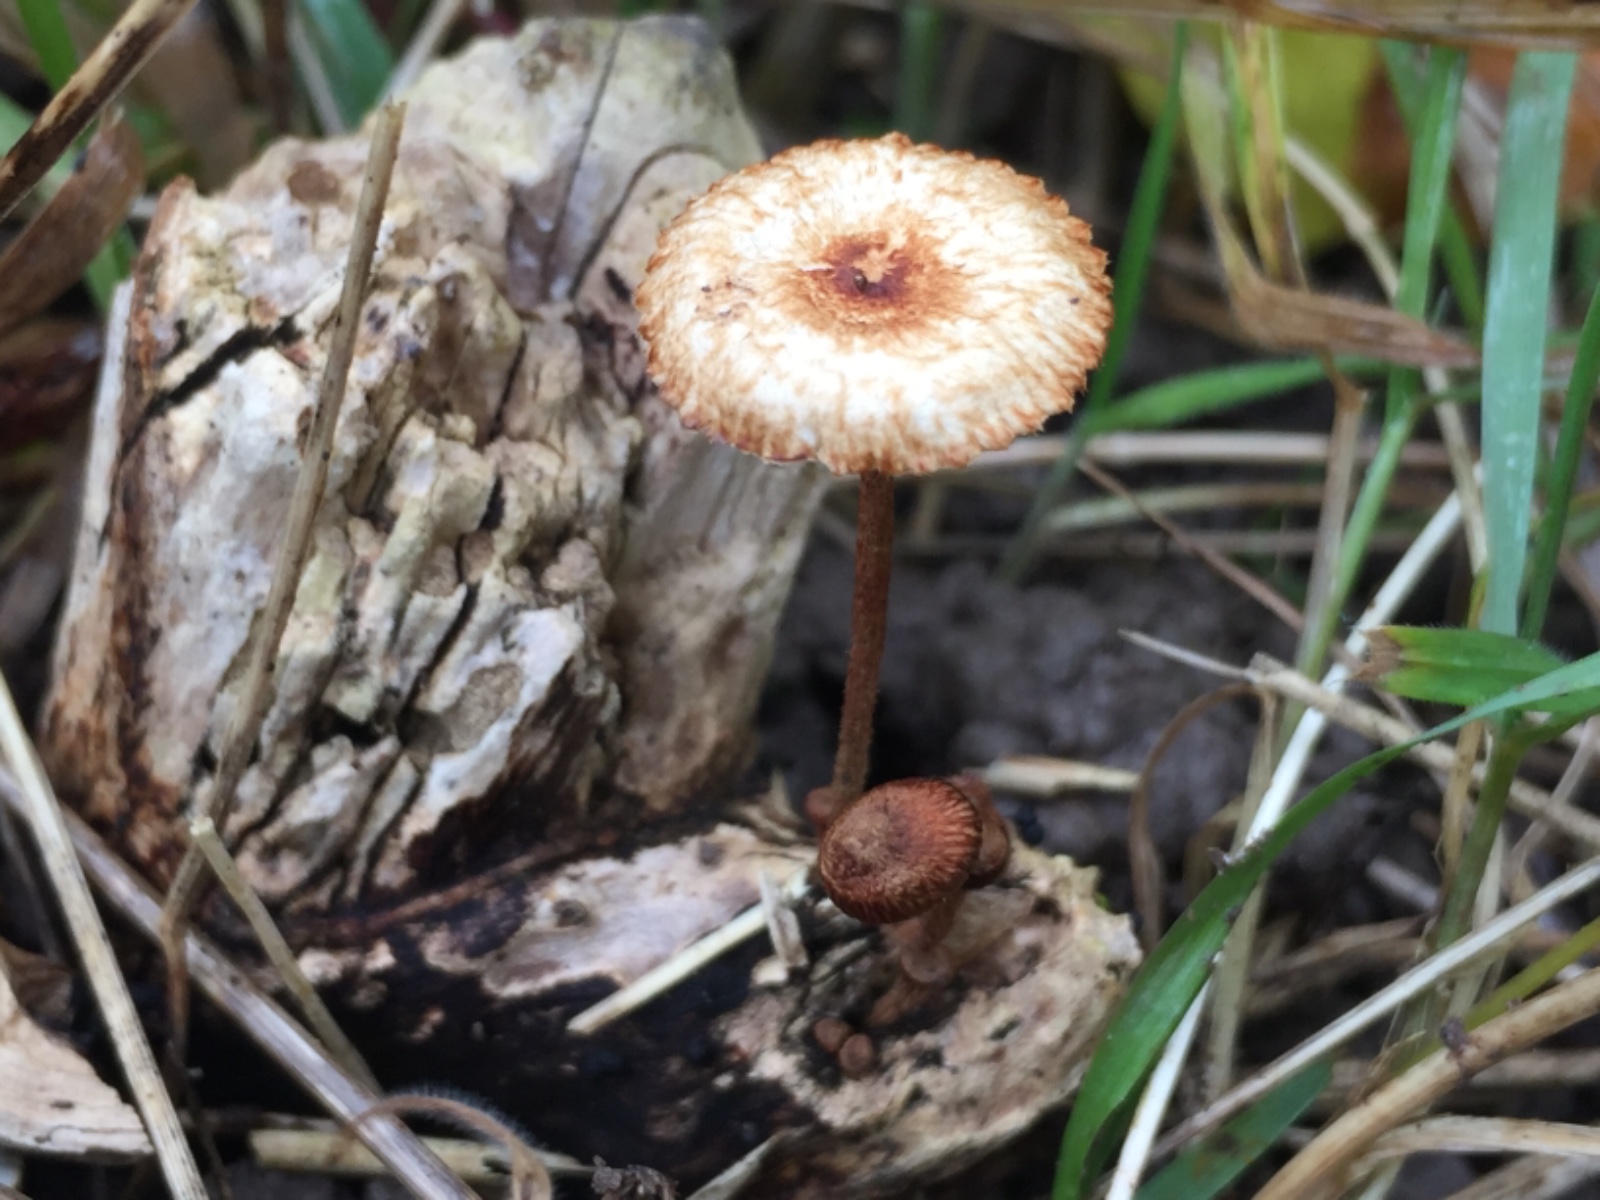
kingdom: Fungi
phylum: Basidiomycota
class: Agaricomycetes
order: Agaricales
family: Marasmiaceae
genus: Crinipellis
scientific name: Crinipellis scabella
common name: børstefod
